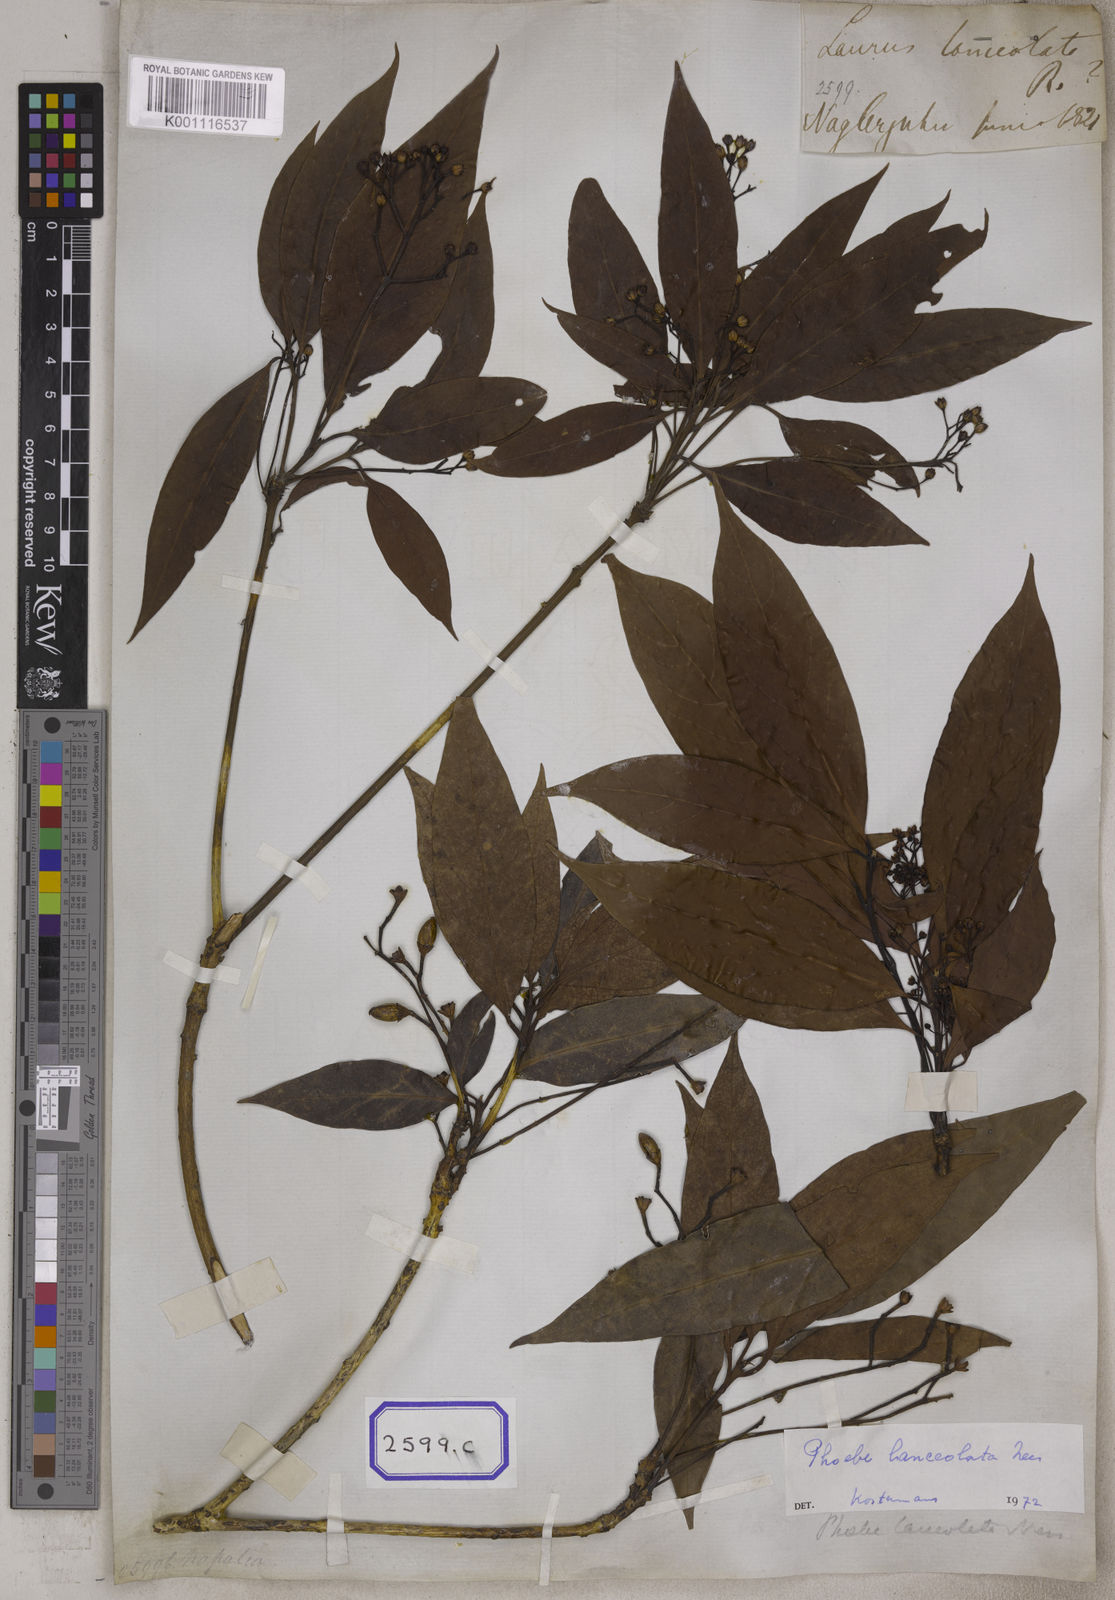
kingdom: Plantae
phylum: Tracheophyta
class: Magnoliopsida
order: Laurales
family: Lauraceae
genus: Laurus
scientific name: Laurus
